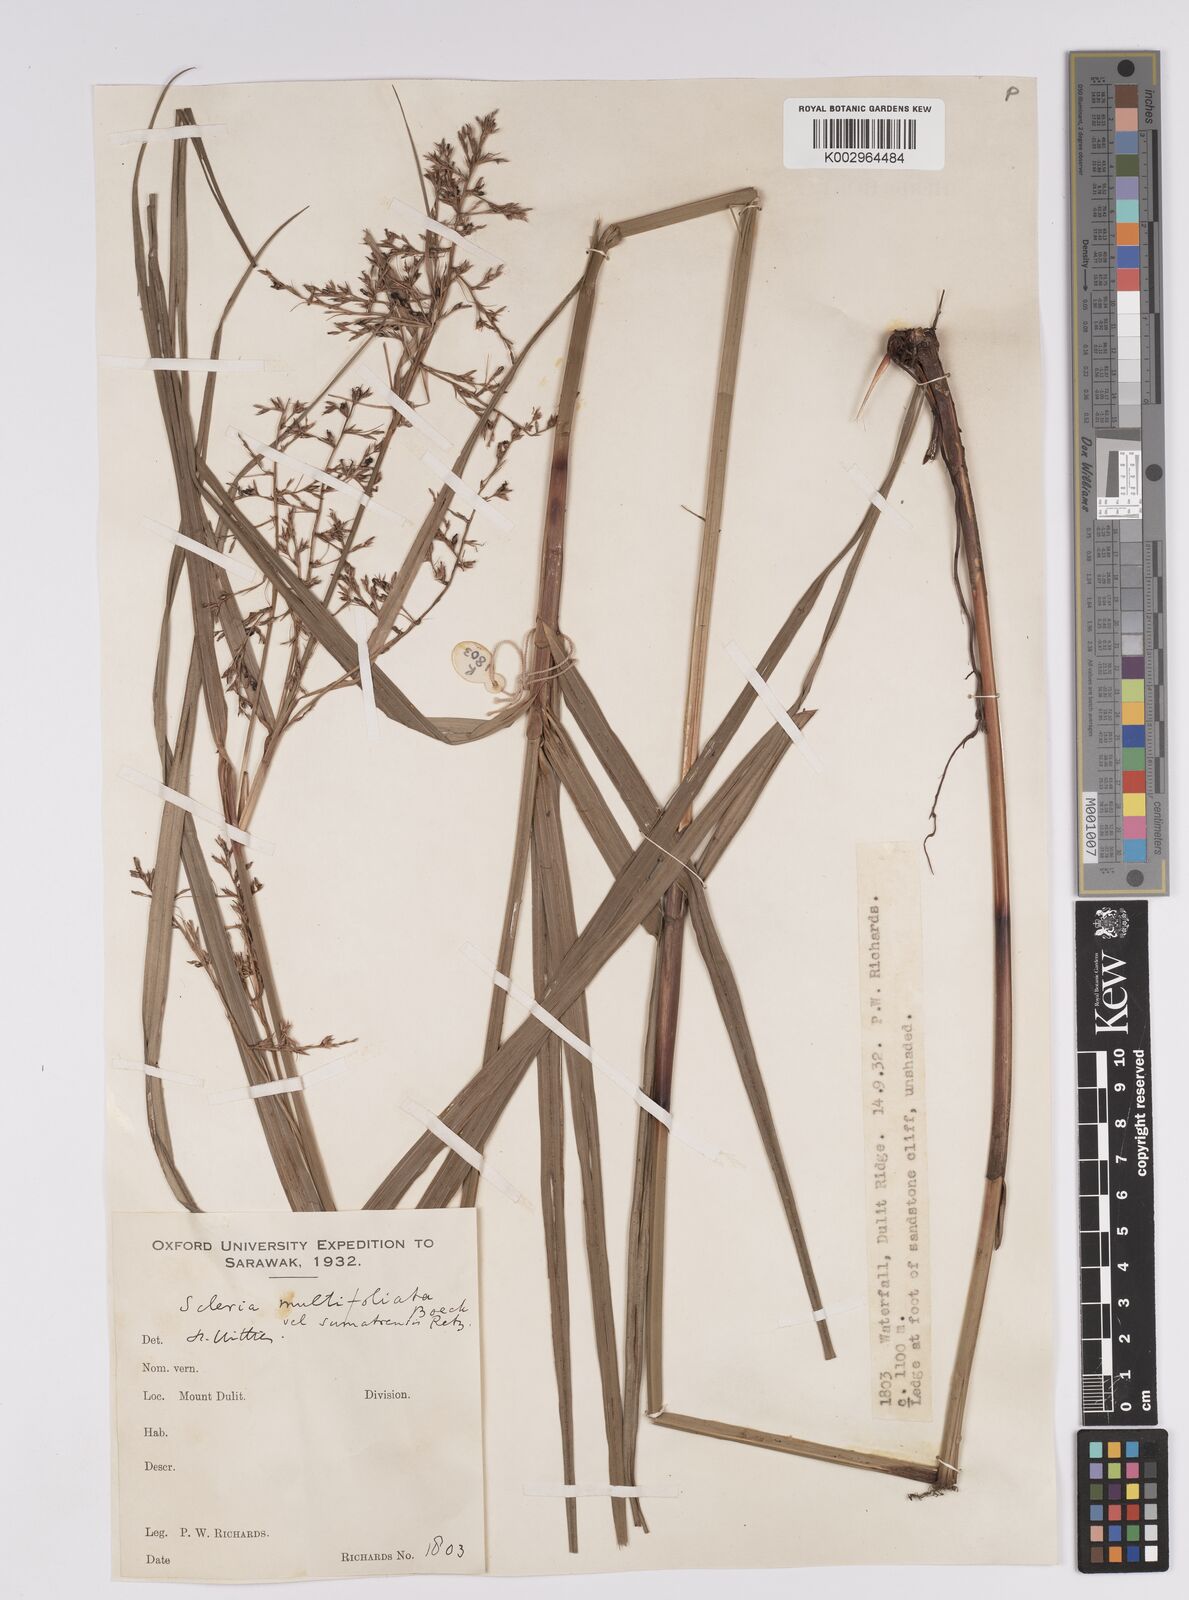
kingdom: Plantae
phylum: Tracheophyta
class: Liliopsida
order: Poales
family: Cyperaceae
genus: Scleria
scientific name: Scleria sumatrensis
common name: Sumatran scleria
